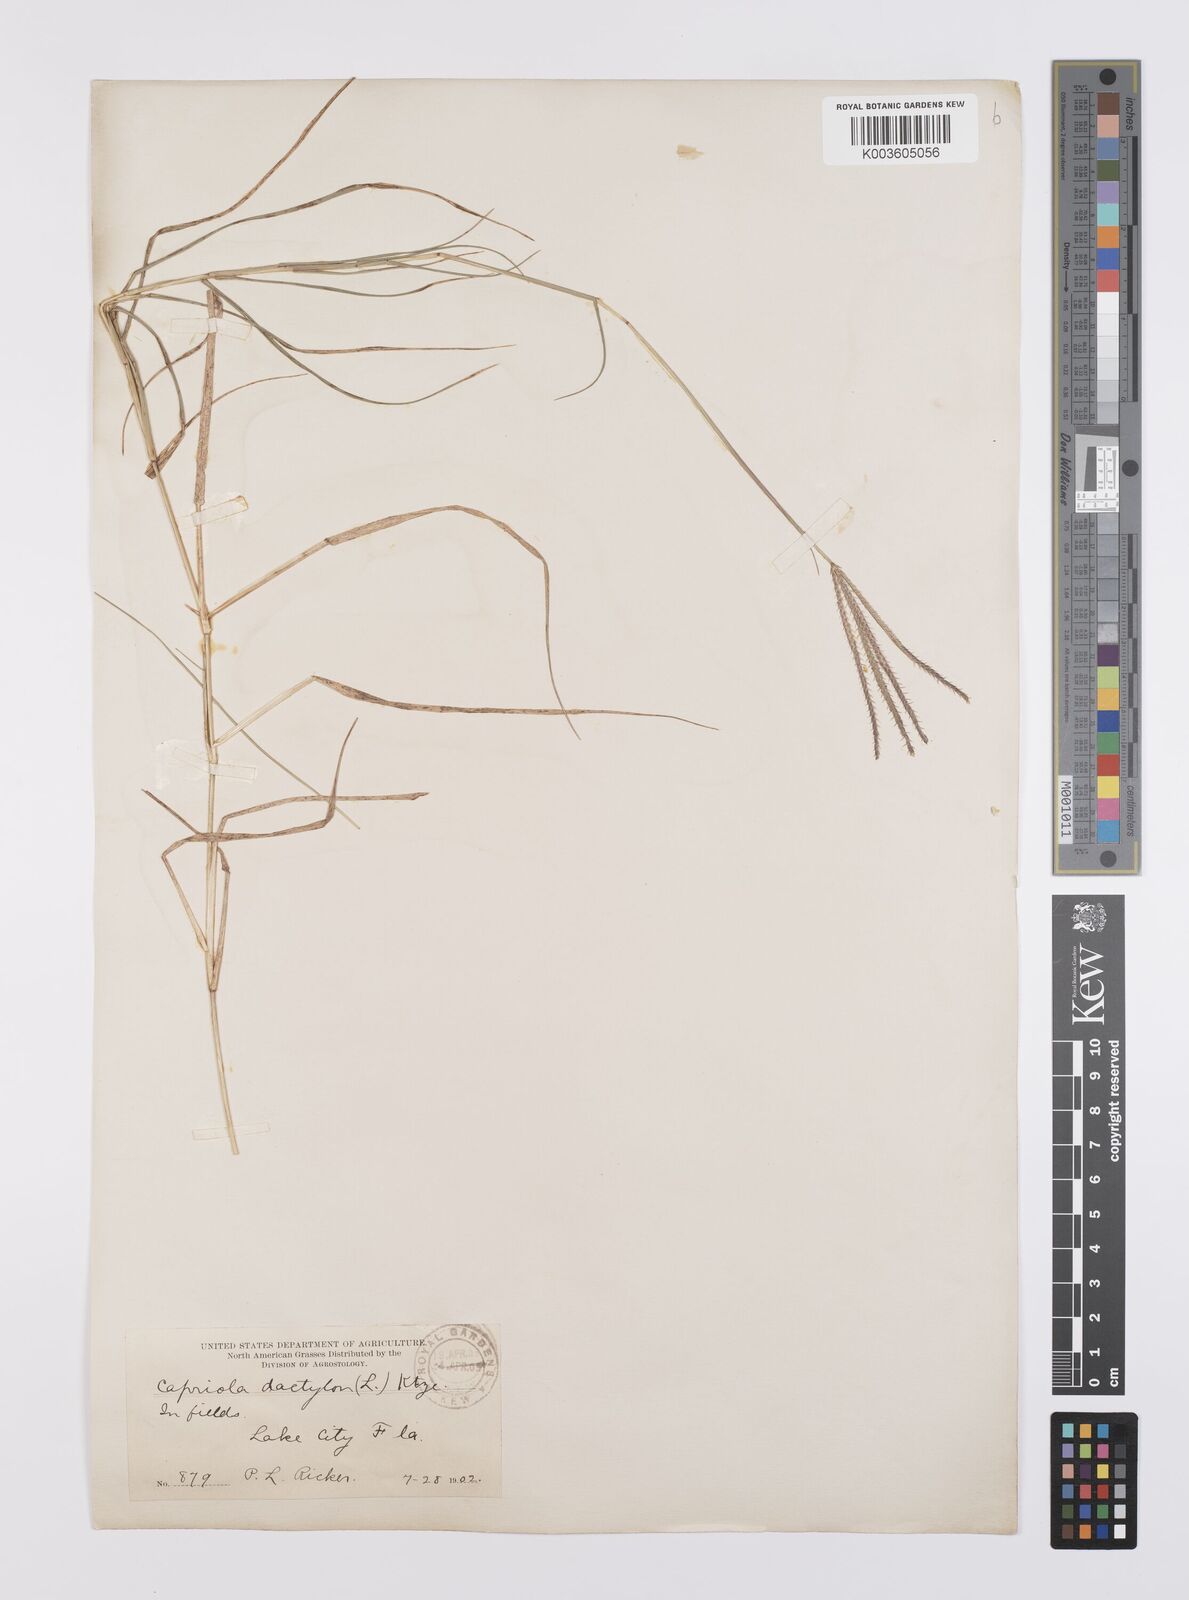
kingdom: Plantae
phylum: Tracheophyta
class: Liliopsida
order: Poales
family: Poaceae
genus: Cynodon
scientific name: Cynodon dactylon
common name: Bermuda grass
